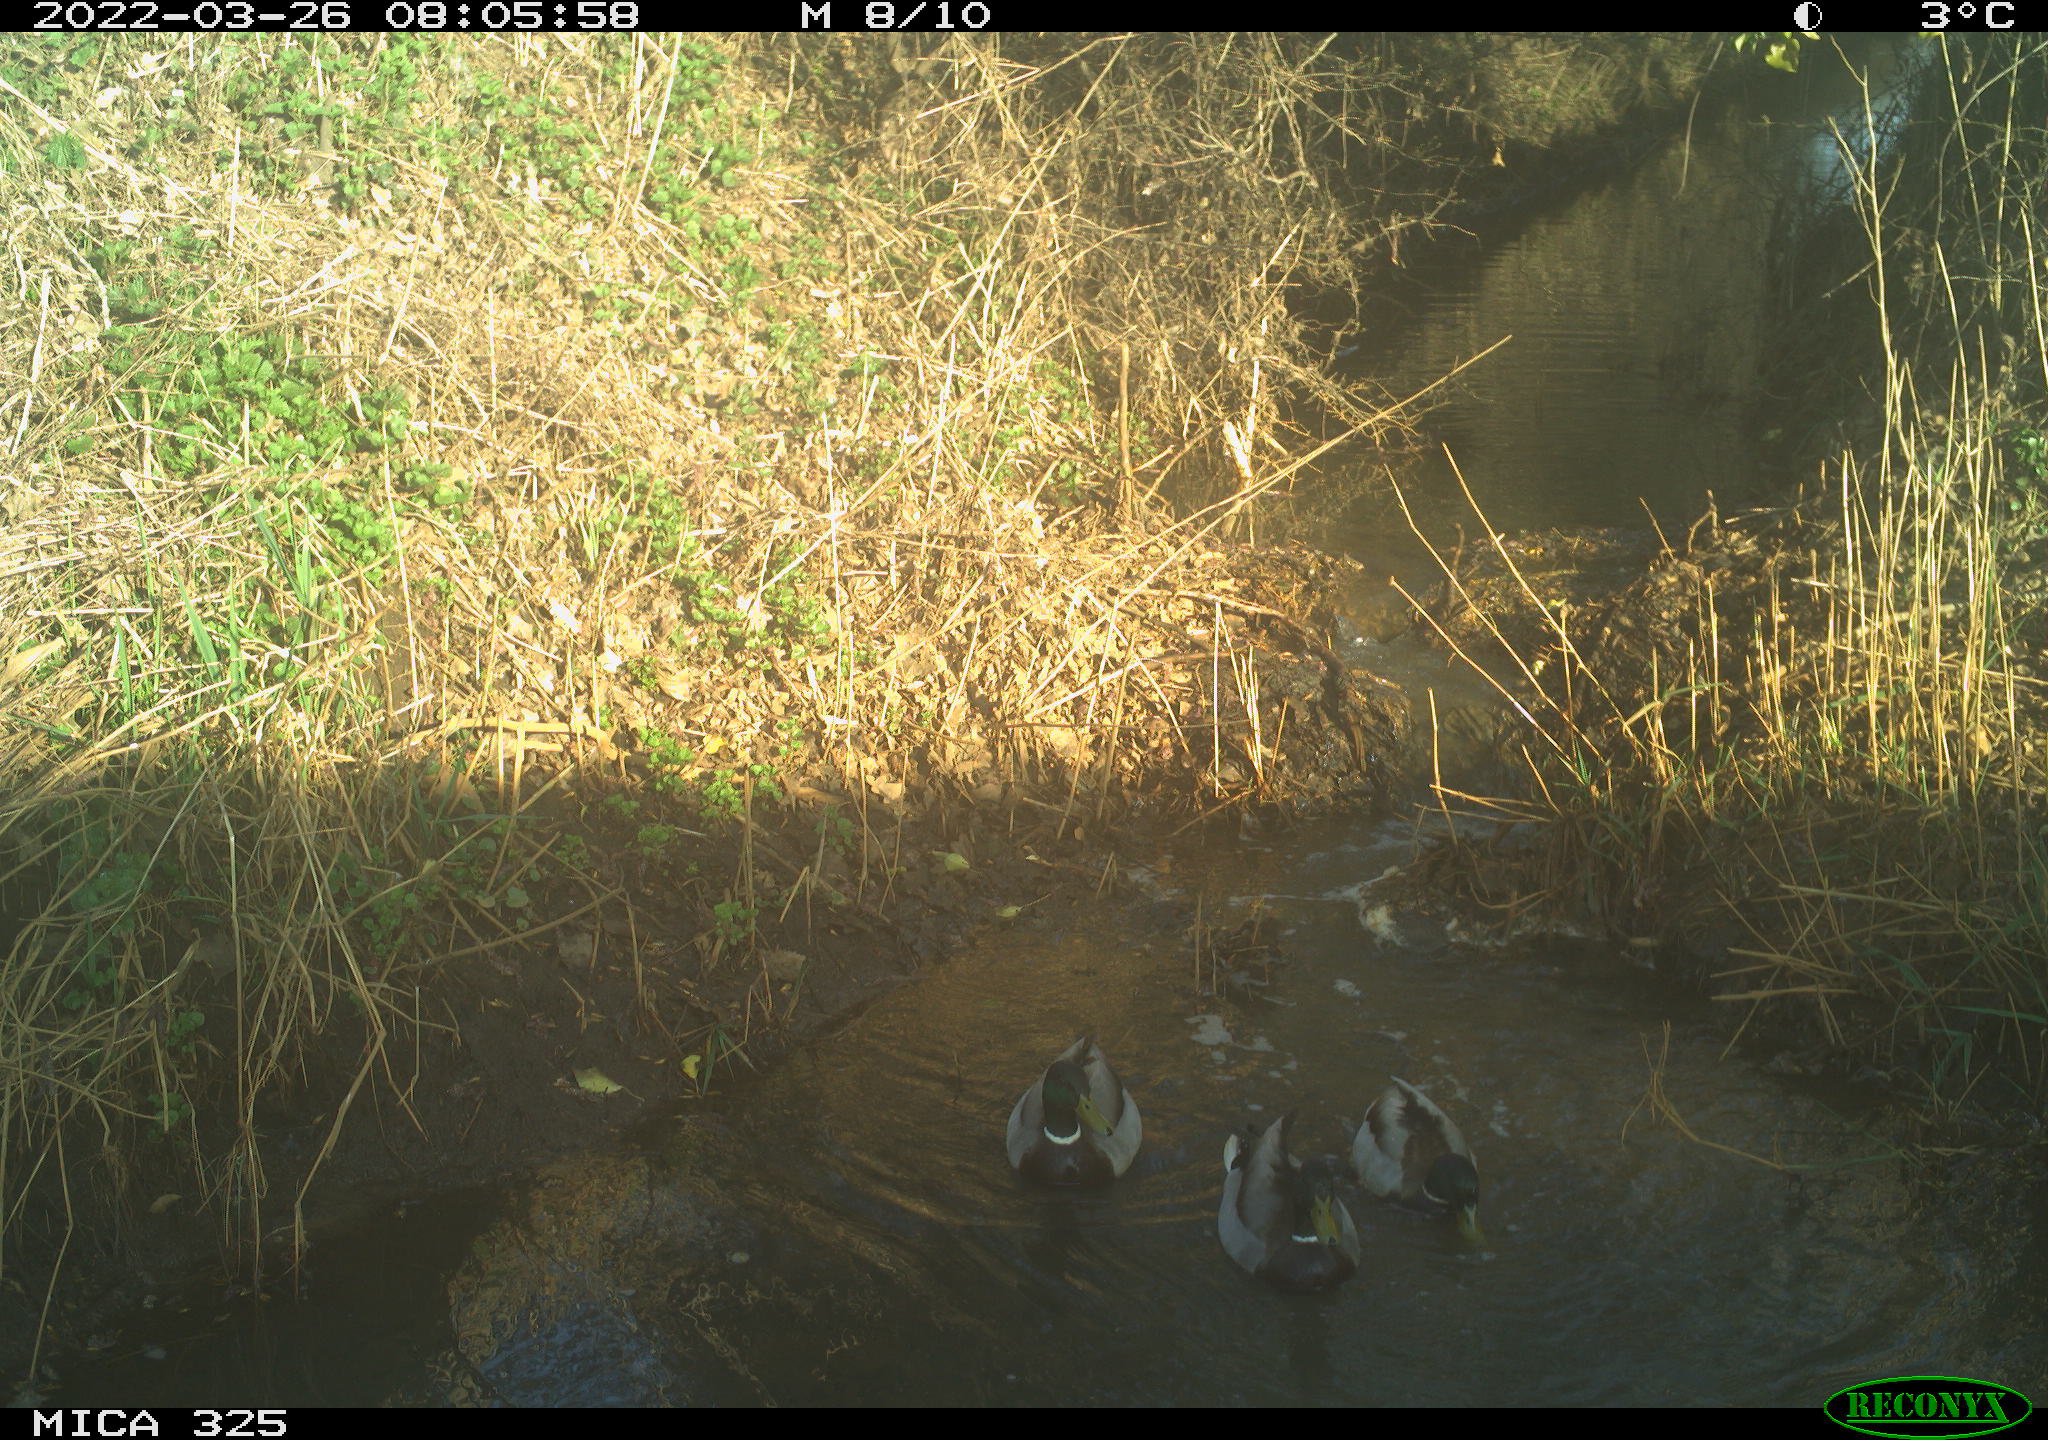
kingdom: Animalia
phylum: Chordata
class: Aves
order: Anseriformes
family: Anatidae
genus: Anas
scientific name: Anas platyrhynchos
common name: Mallard
